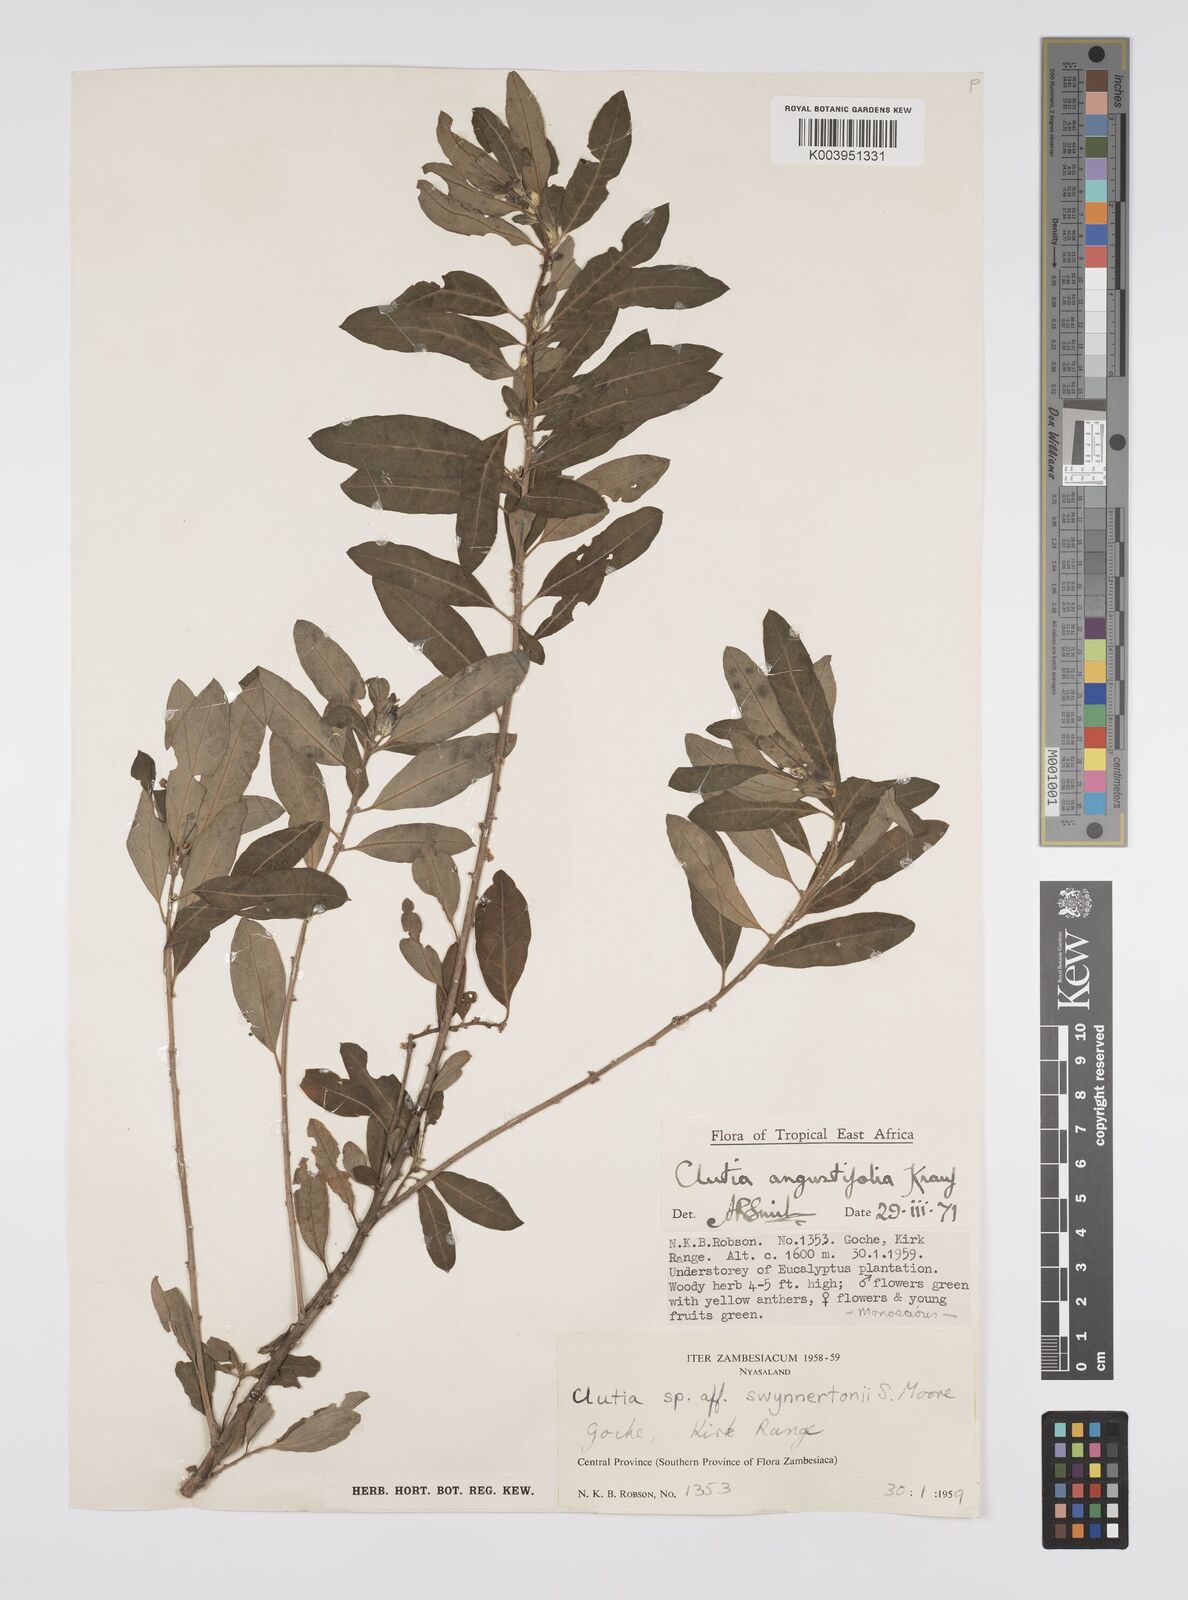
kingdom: Plantae
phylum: Tracheophyta
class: Magnoliopsida
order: Malpighiales
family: Peraceae
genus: Clutia
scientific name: Clutia angustifolia
